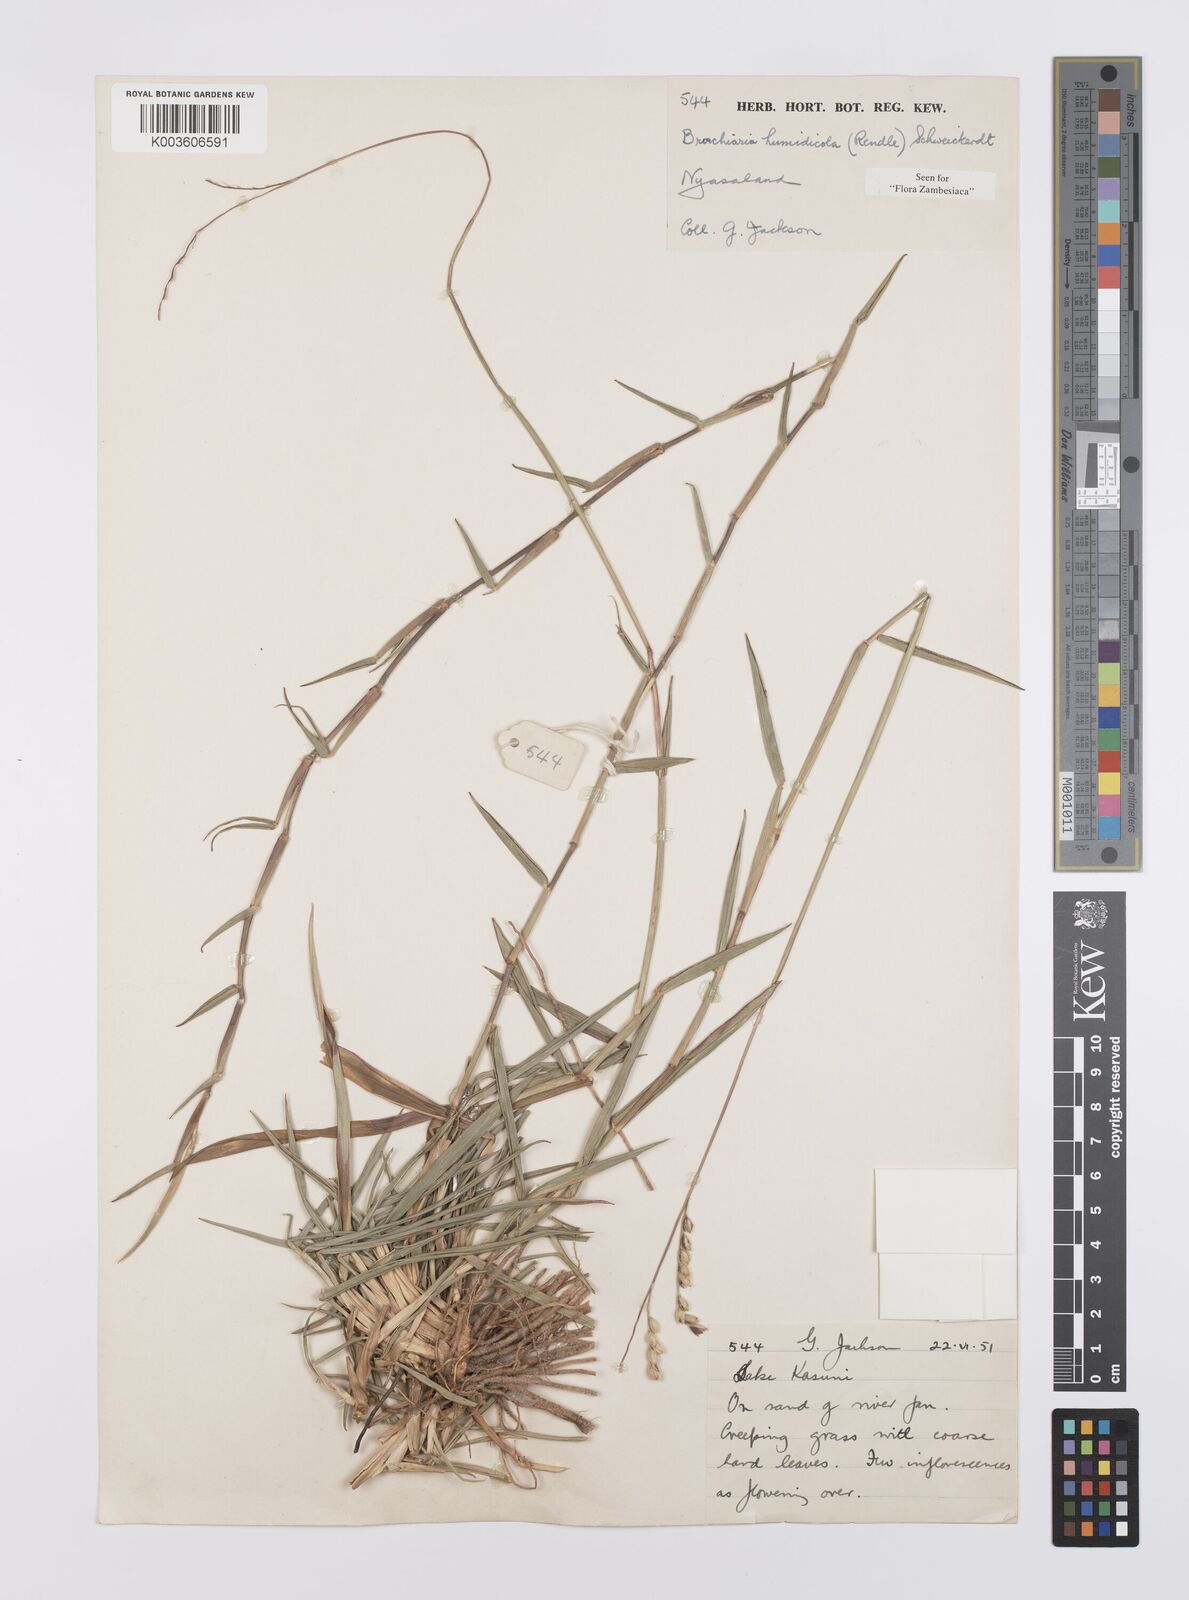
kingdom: Plantae
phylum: Tracheophyta
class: Liliopsida
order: Poales
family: Poaceae
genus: Urochloa
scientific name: Urochloa dictyoneura
